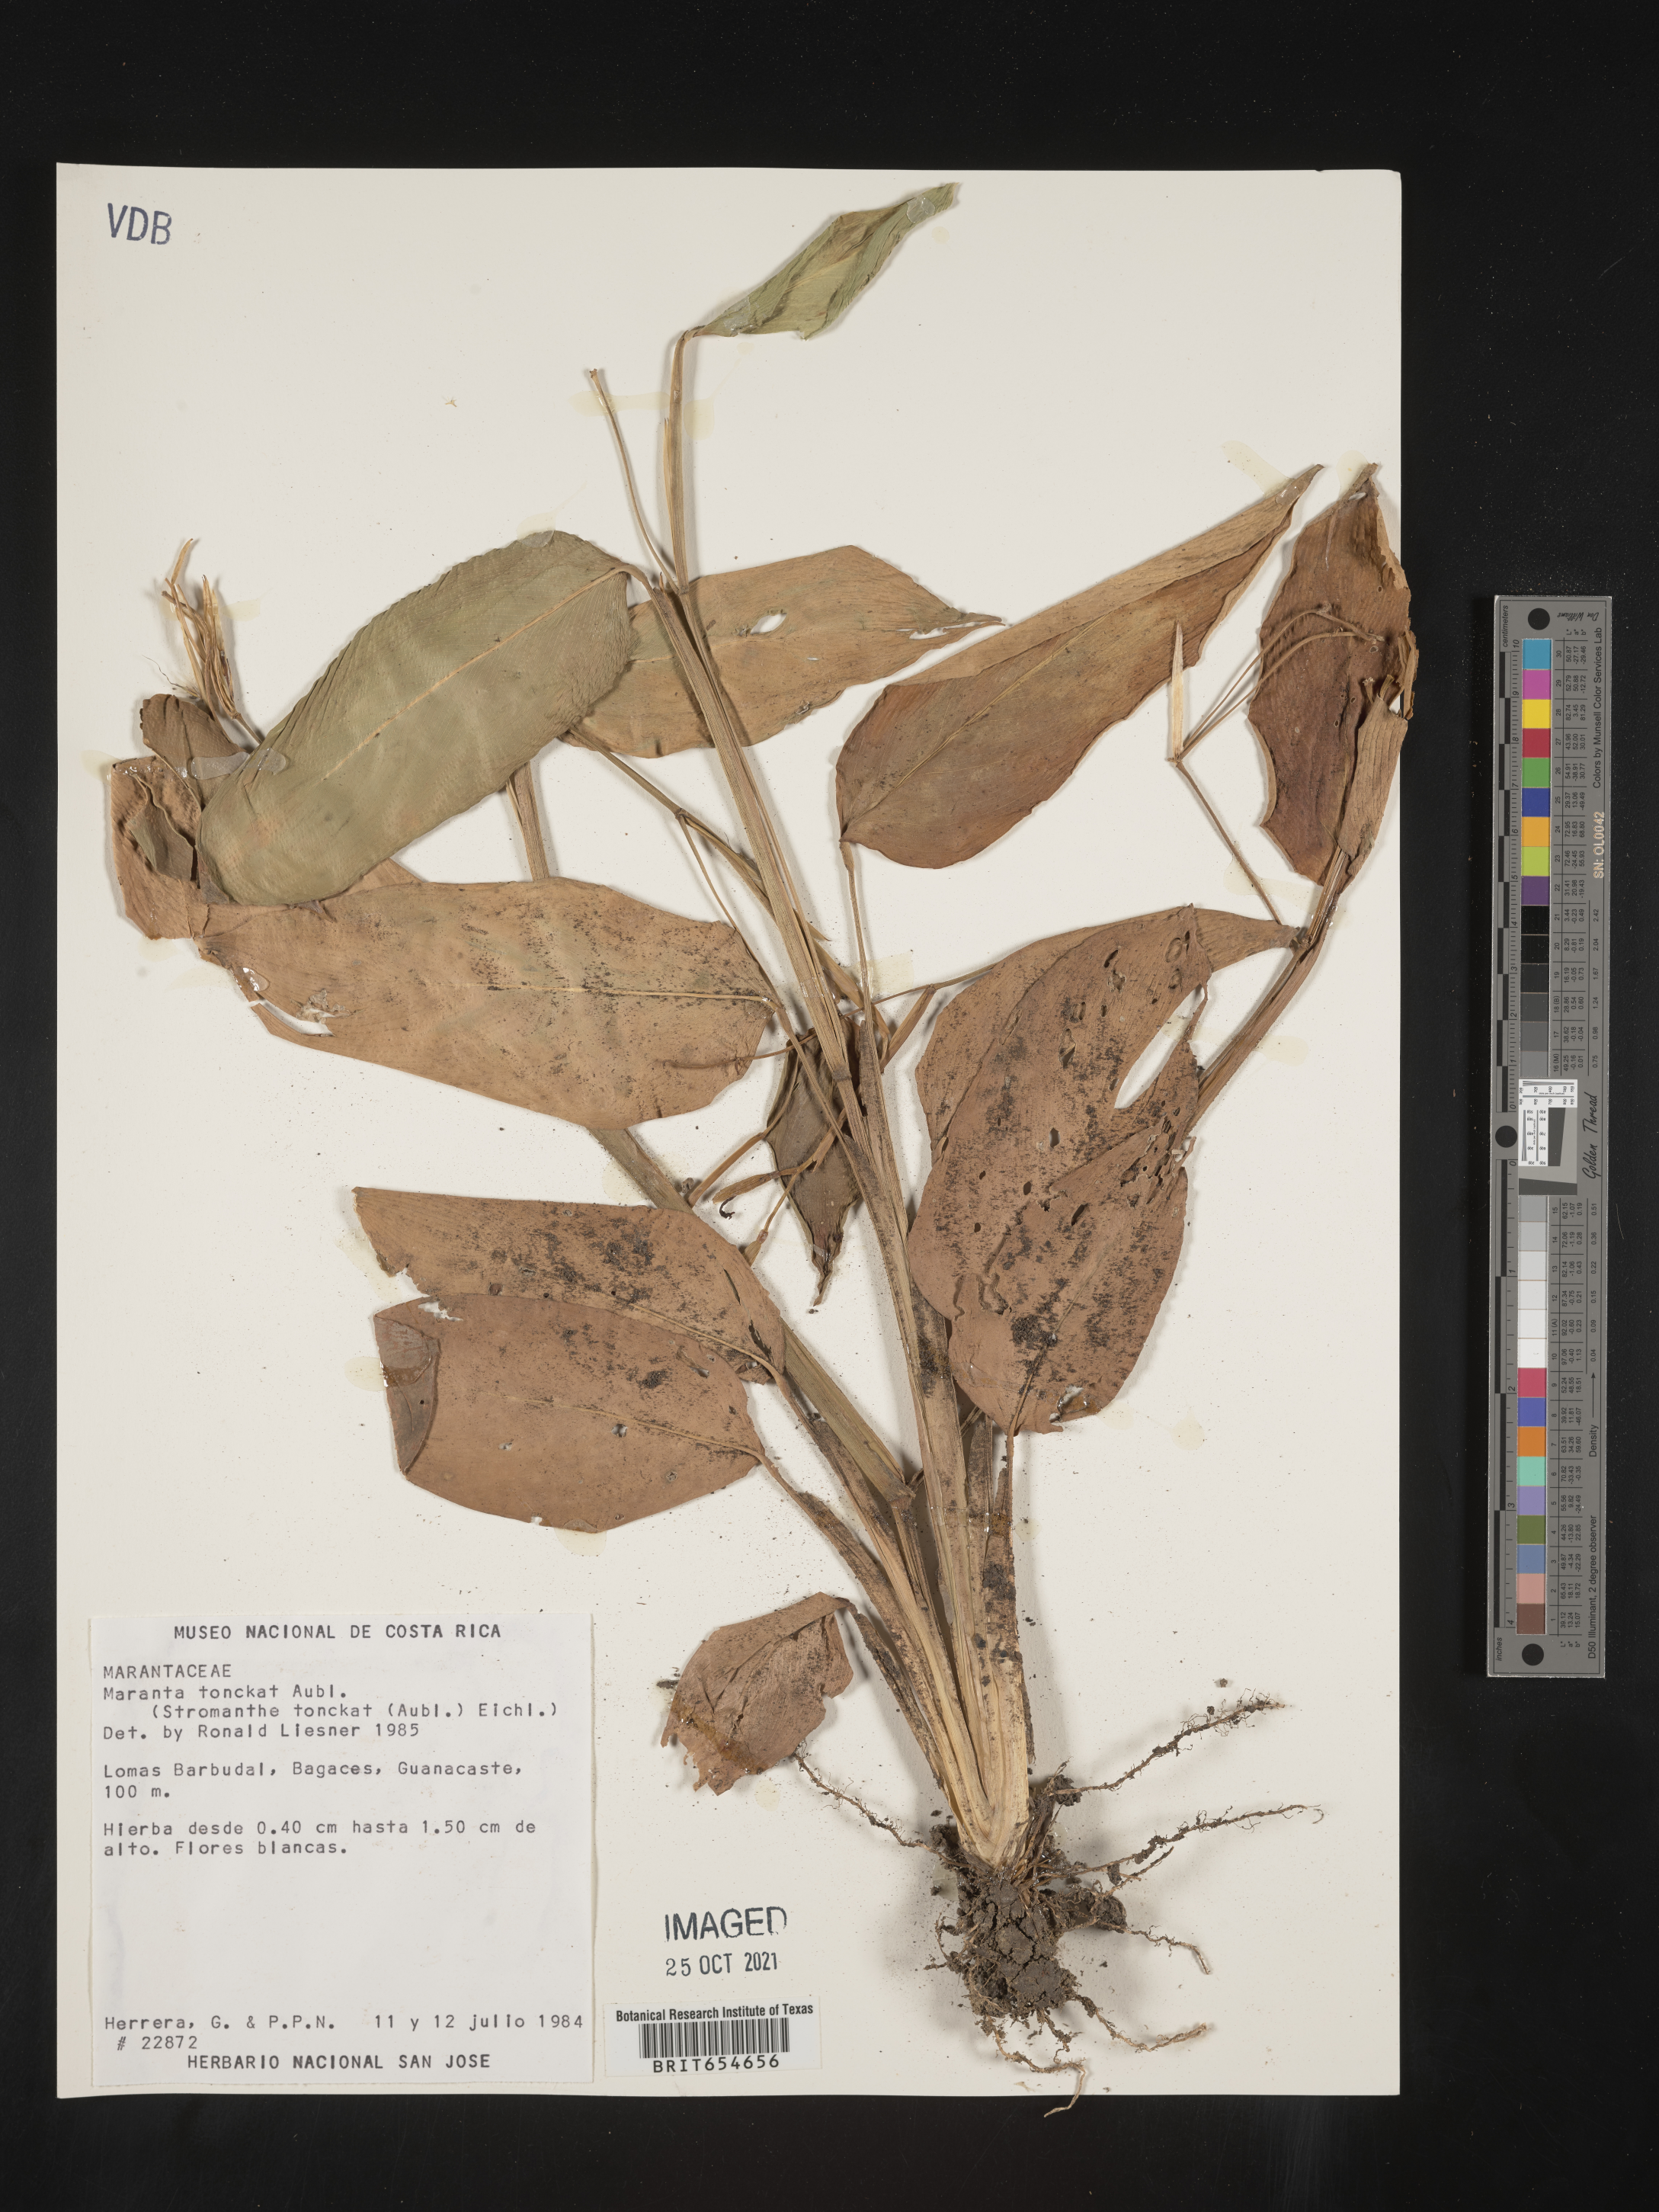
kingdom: Plantae
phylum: Tracheophyta
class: Liliopsida
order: Zingiberales
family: Marantaceae
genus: Maranta
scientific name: Maranta
